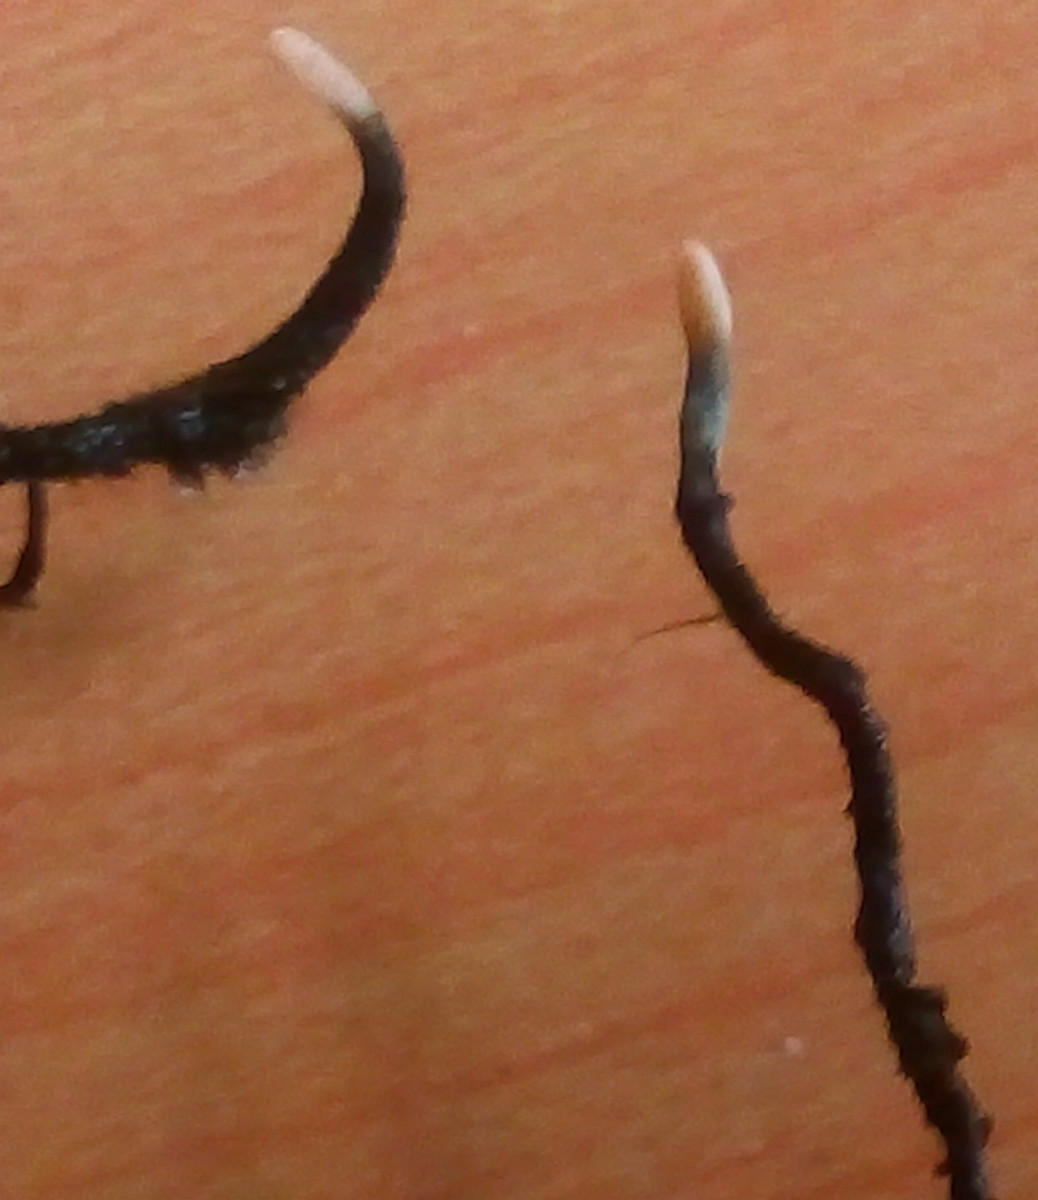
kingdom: Fungi
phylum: Ascomycota
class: Sordariomycetes
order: Xylariales
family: Xylariaceae
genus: Xylaria
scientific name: Xylaria carpophila
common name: bogskål-stødsvamp
